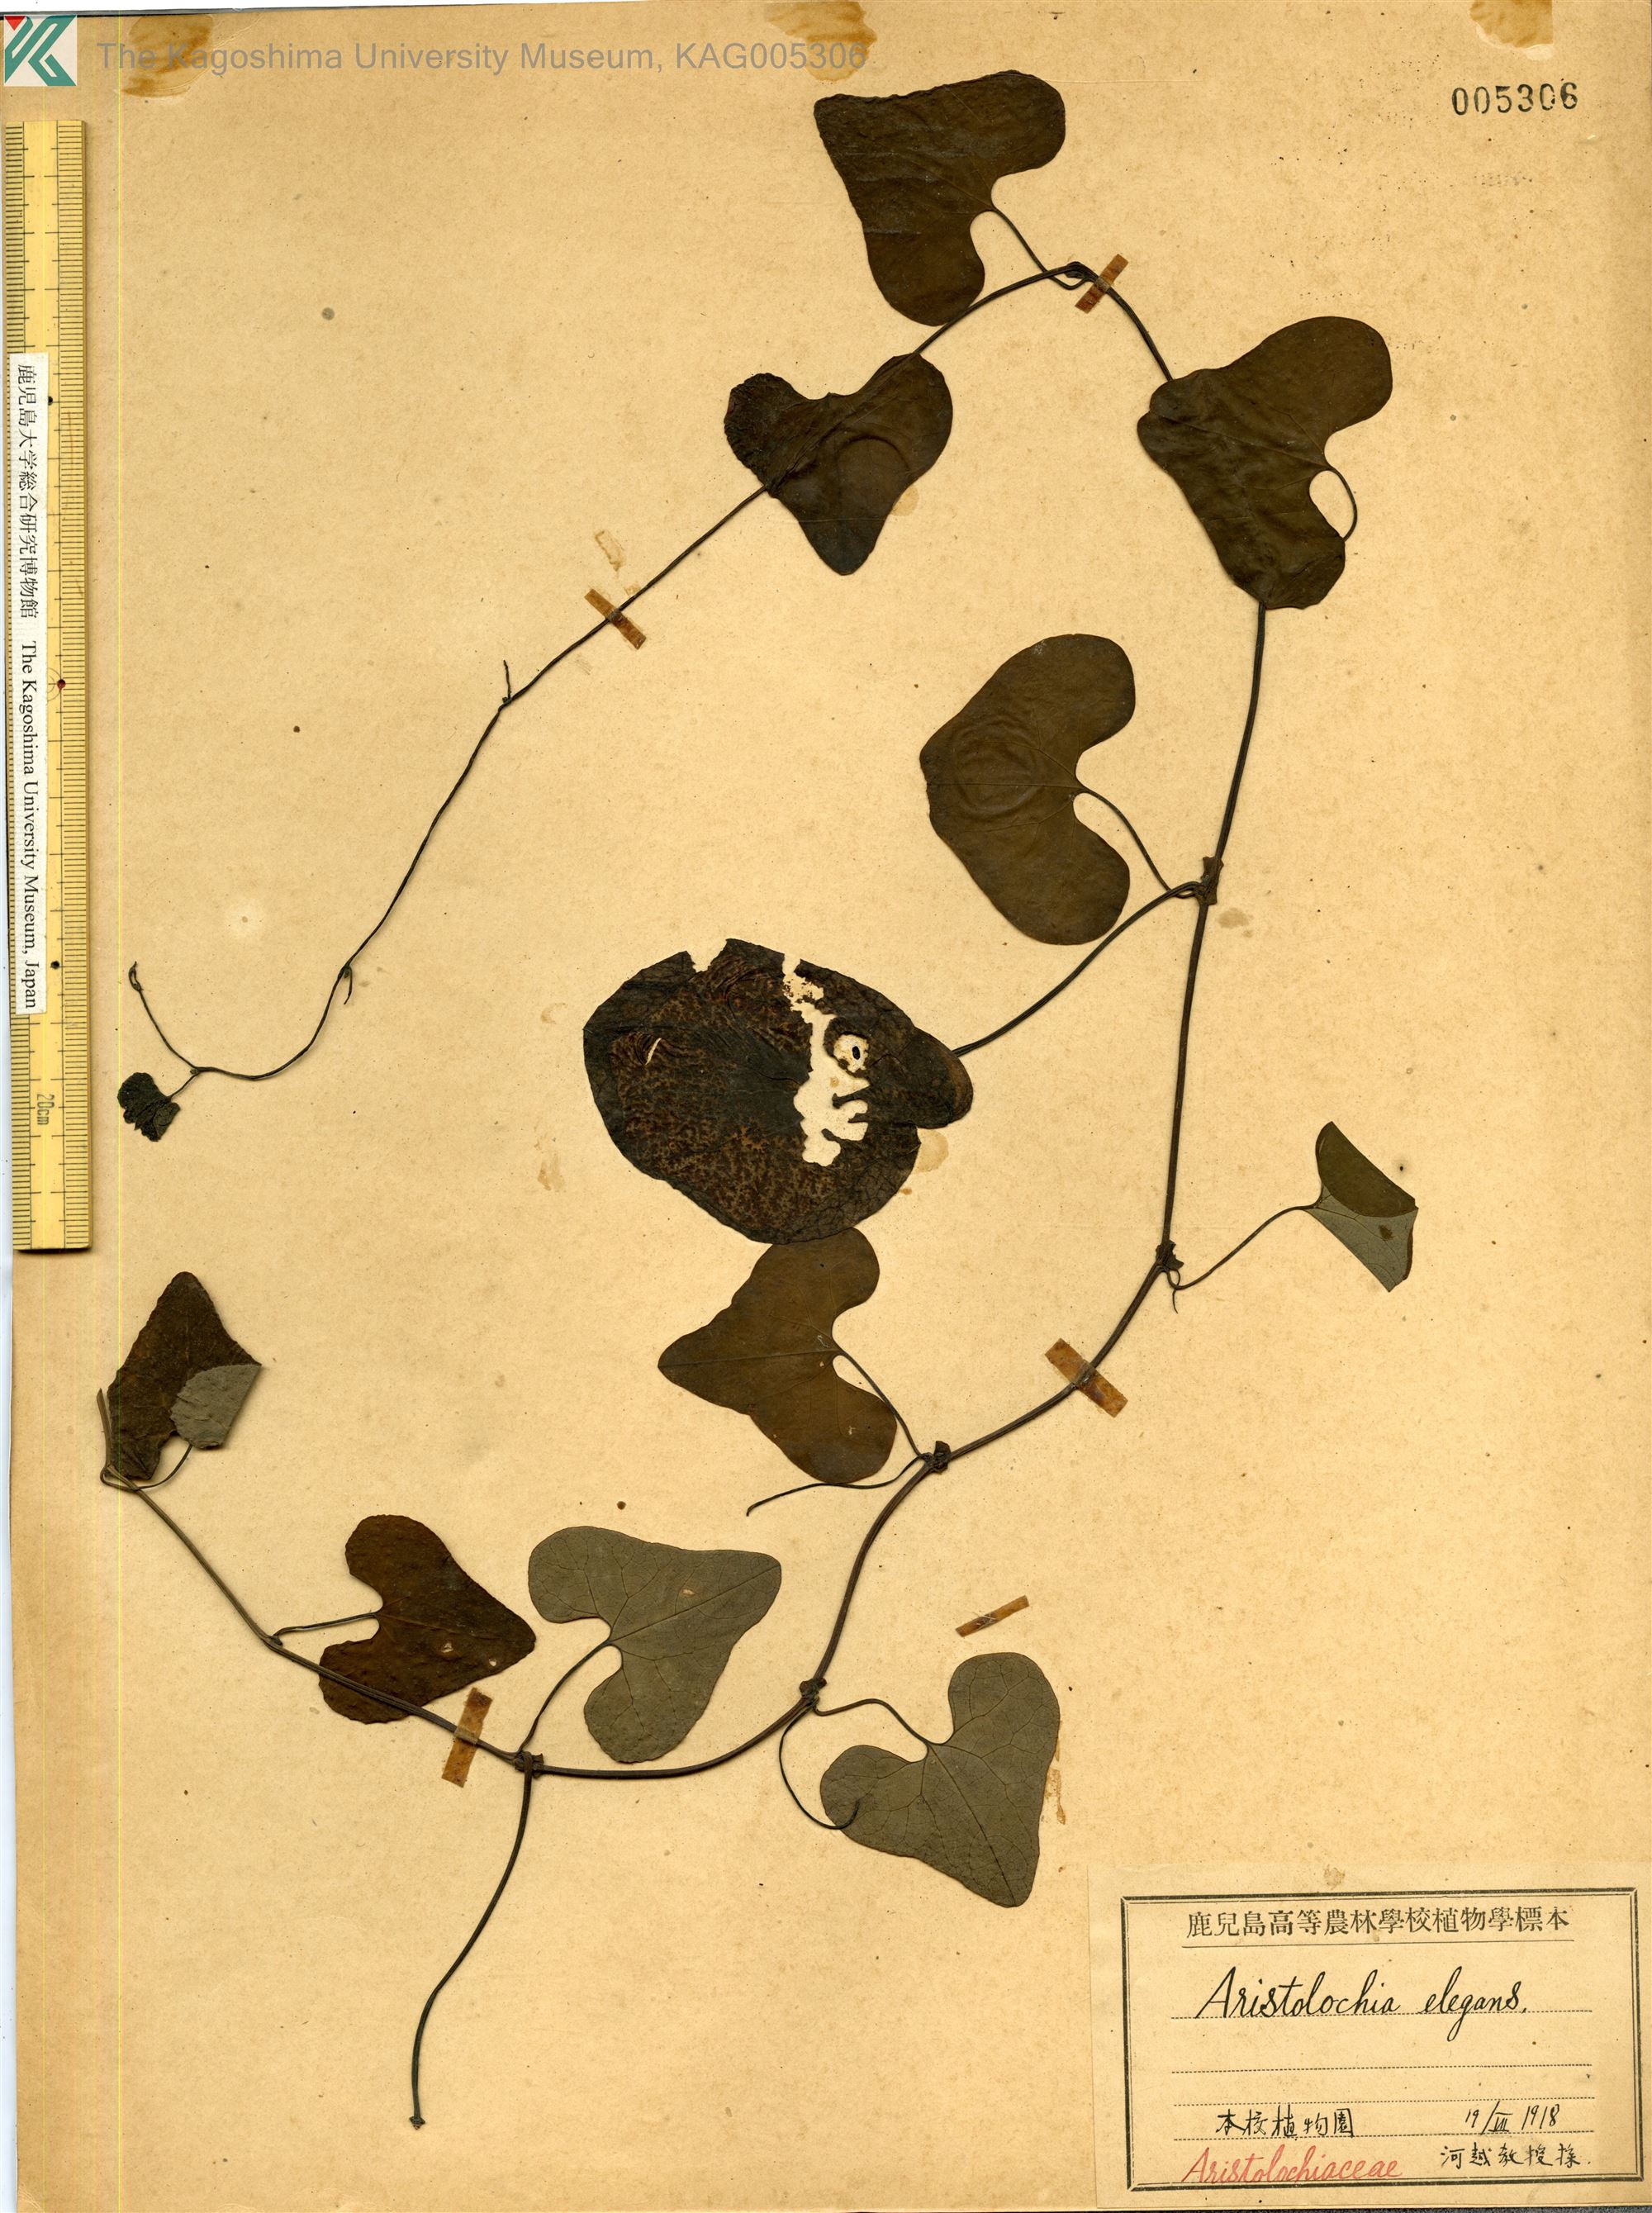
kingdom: Plantae
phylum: Tracheophyta
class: Magnoliopsida
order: Piperales
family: Aristolochiaceae
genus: Aristolochia
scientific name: Aristolochia littoralis
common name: Duck
